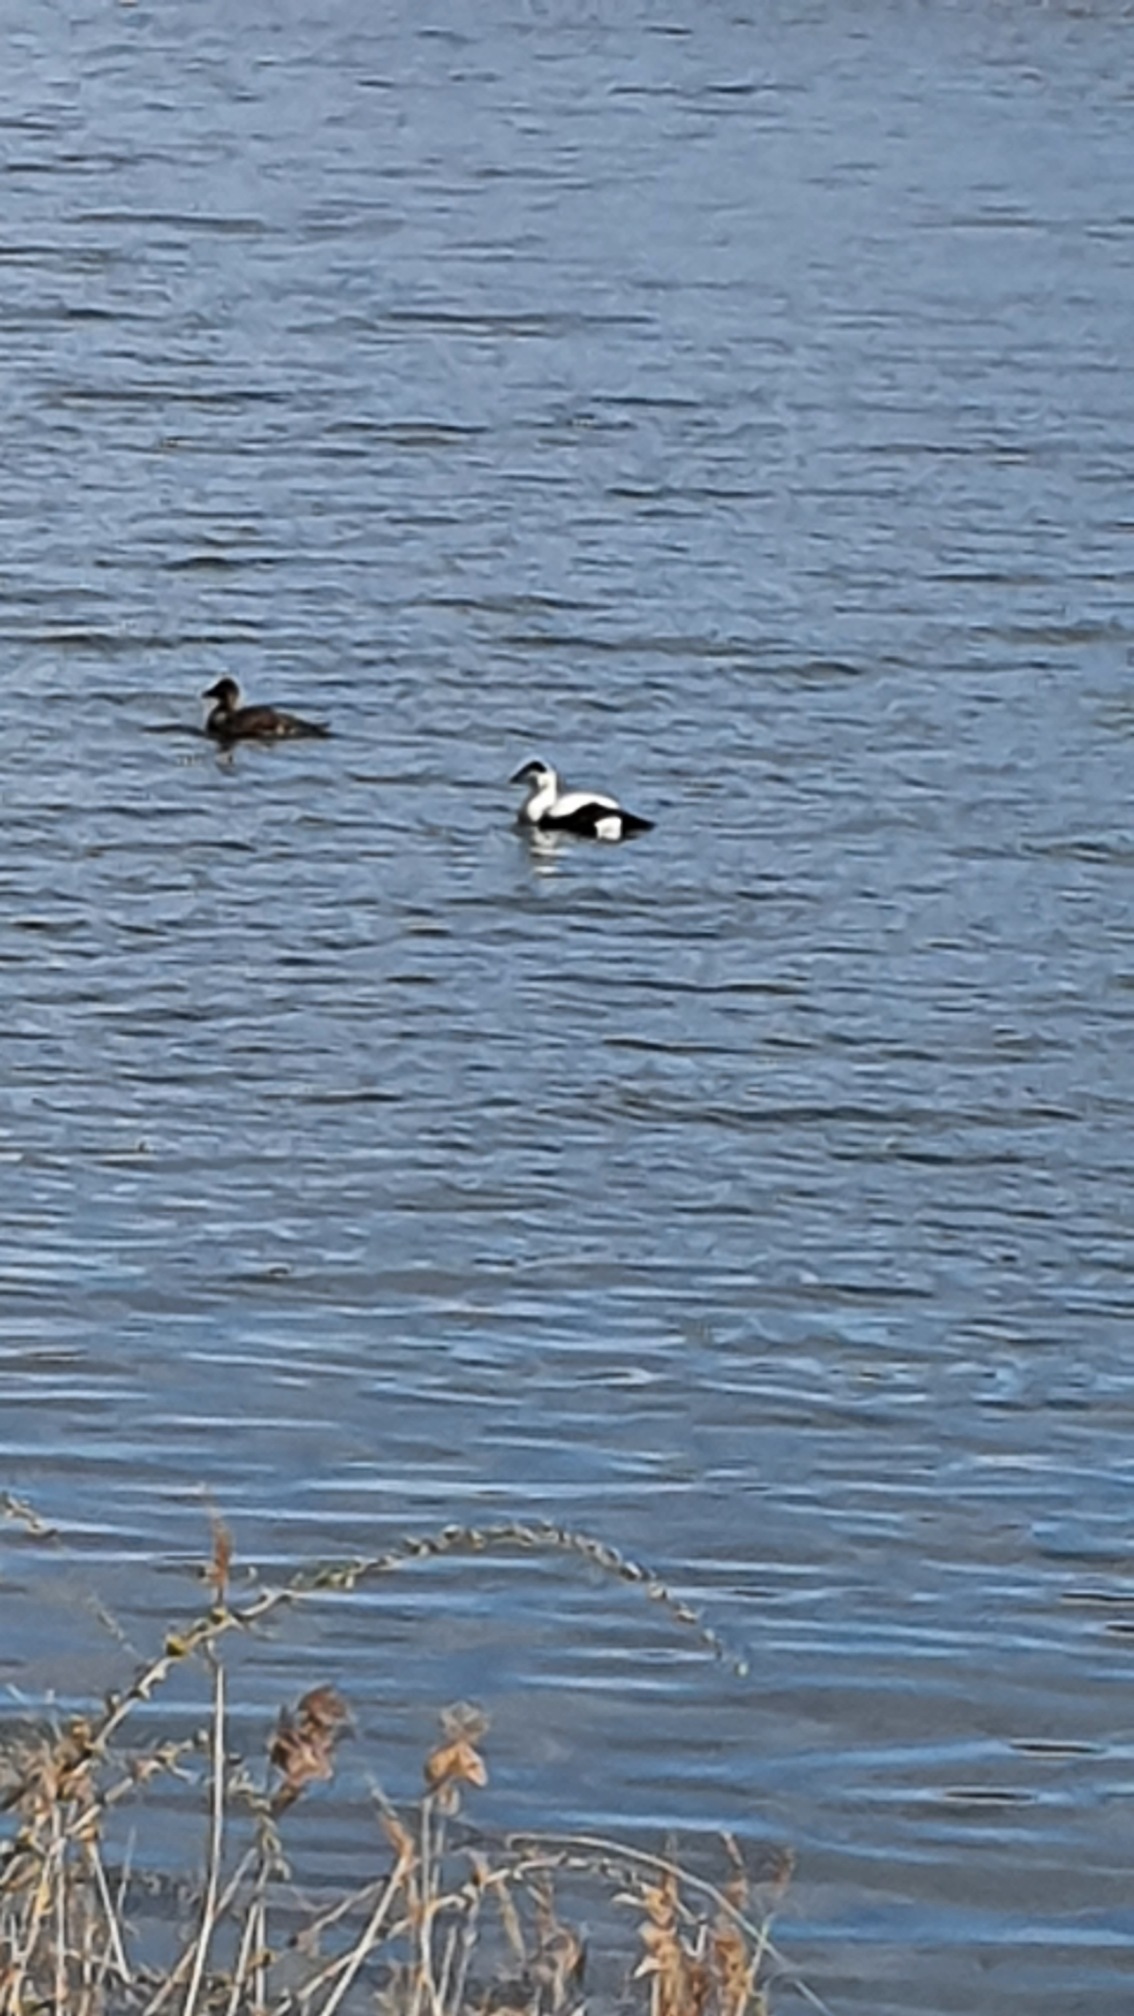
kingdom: Animalia
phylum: Chordata
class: Aves
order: Anseriformes
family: Anatidae
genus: Somateria
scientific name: Somateria mollissima
